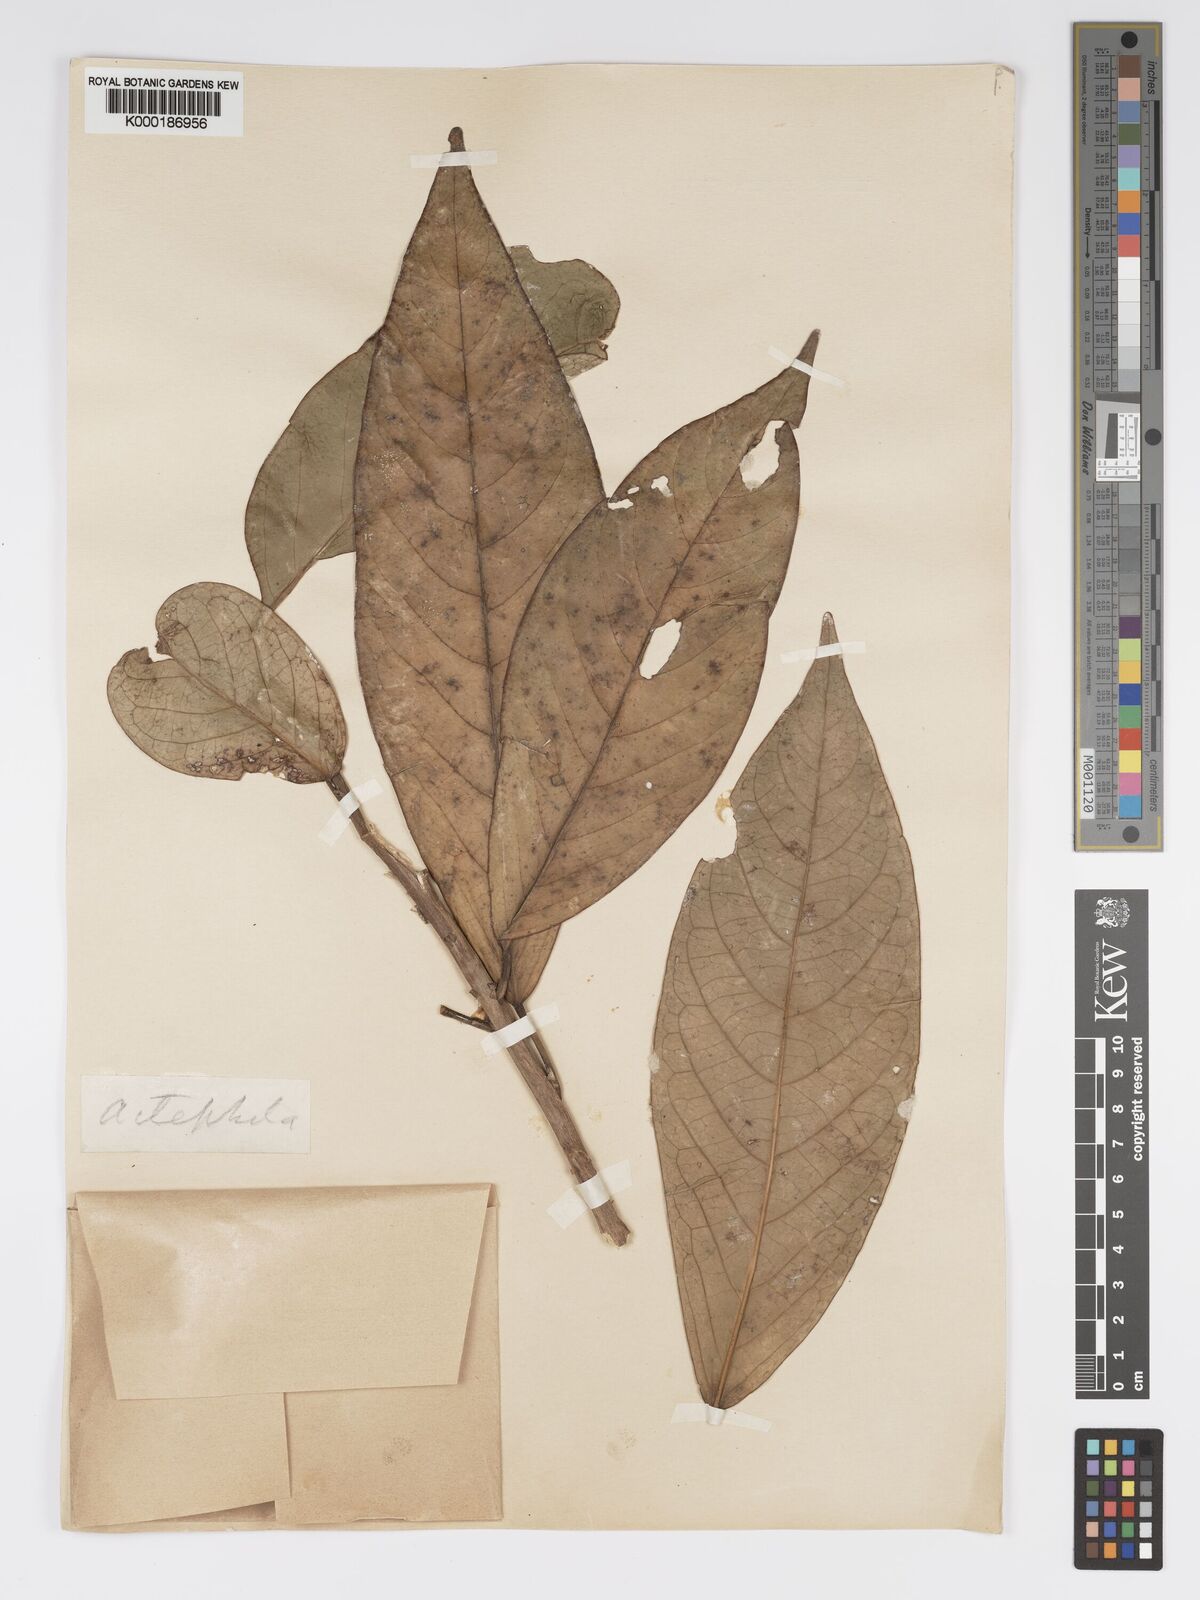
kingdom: Plantae
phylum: Tracheophyta
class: Magnoliopsida
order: Malpighiales
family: Phyllanthaceae
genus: Actephila
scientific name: Actephila
